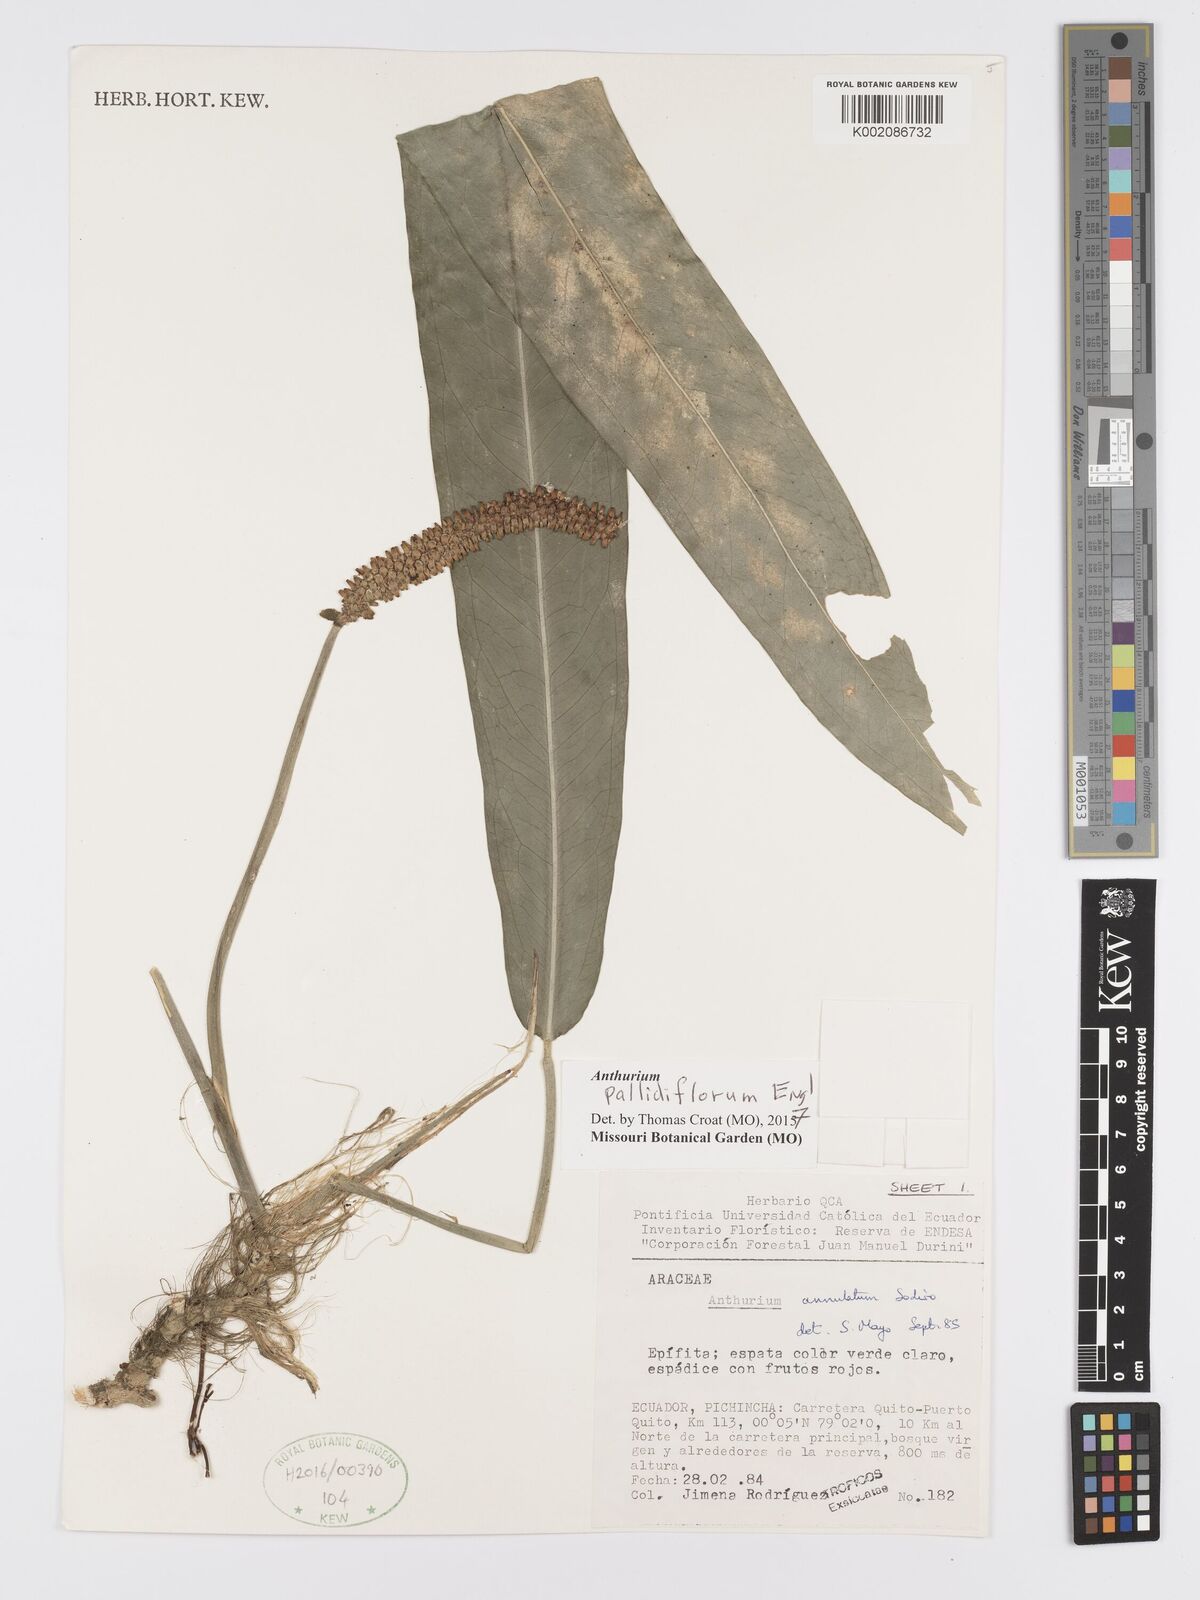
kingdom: Plantae
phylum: Tracheophyta
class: Liliopsida
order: Alismatales
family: Araceae
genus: Anthurium
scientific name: Anthurium pallidiflorum
